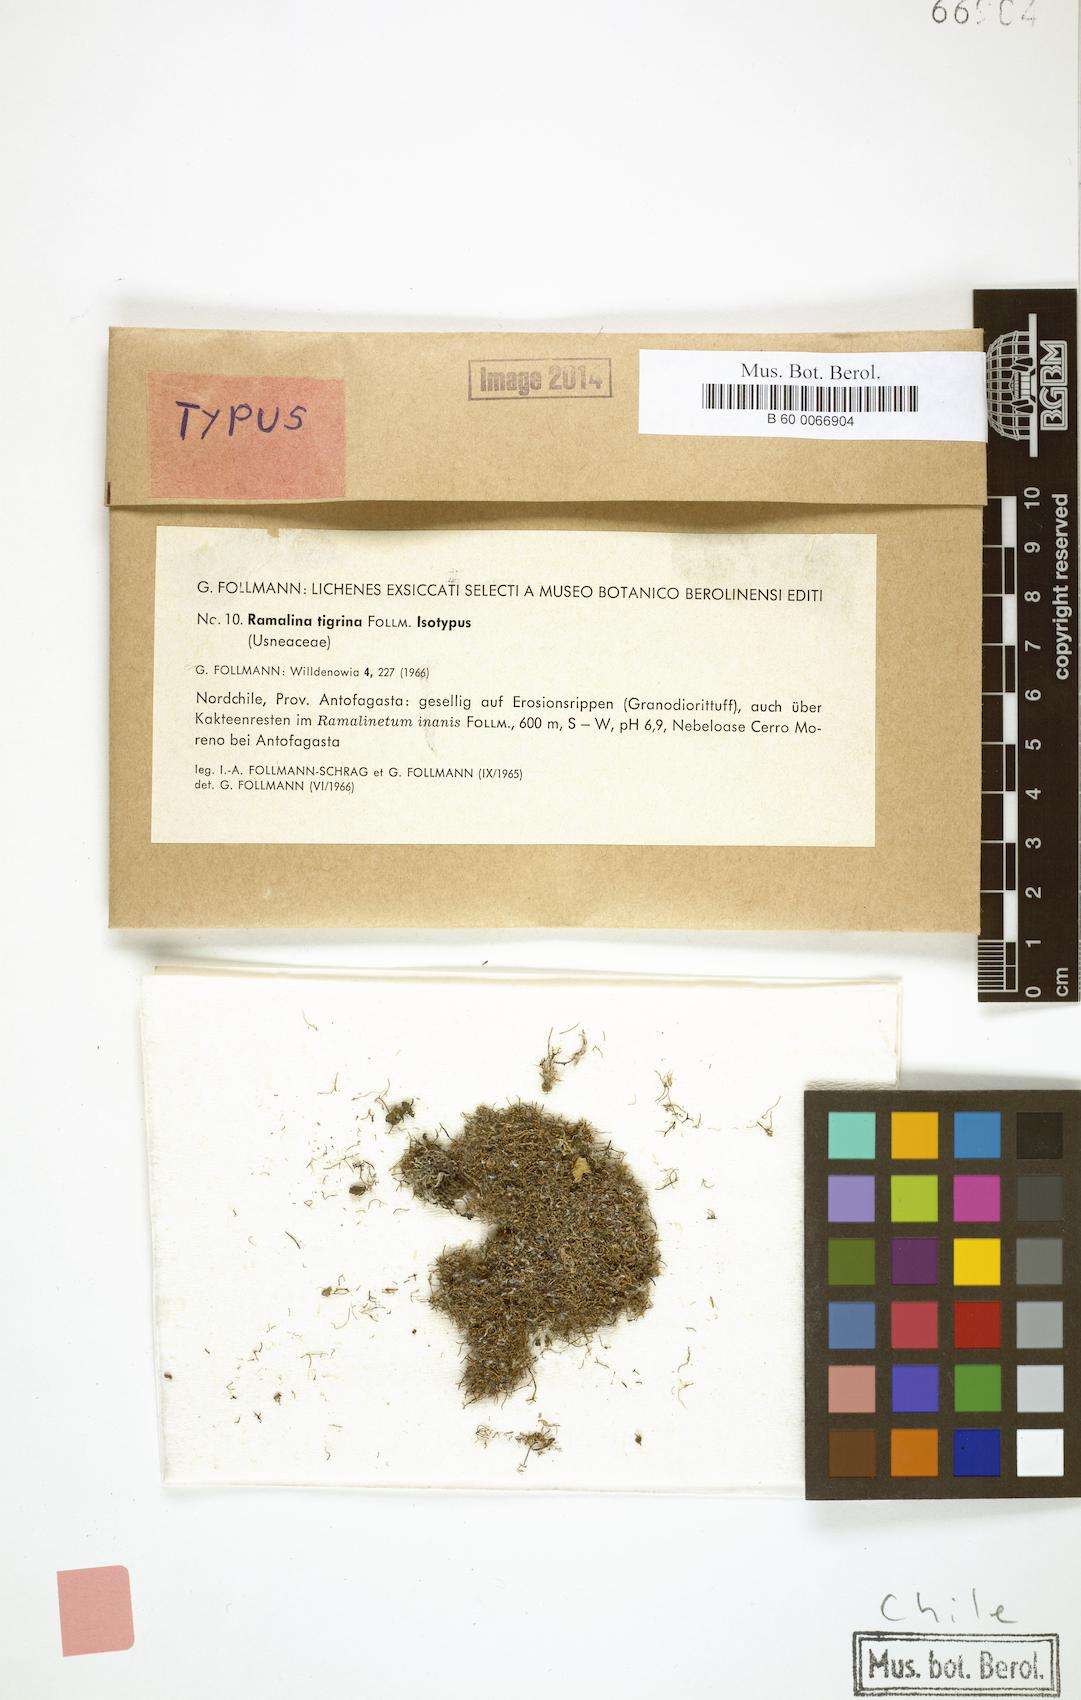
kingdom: Fungi
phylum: Ascomycota
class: Lecanoromycetes
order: Lecanorales
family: Ramalinaceae
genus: Niebla
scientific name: Niebla tigrina
